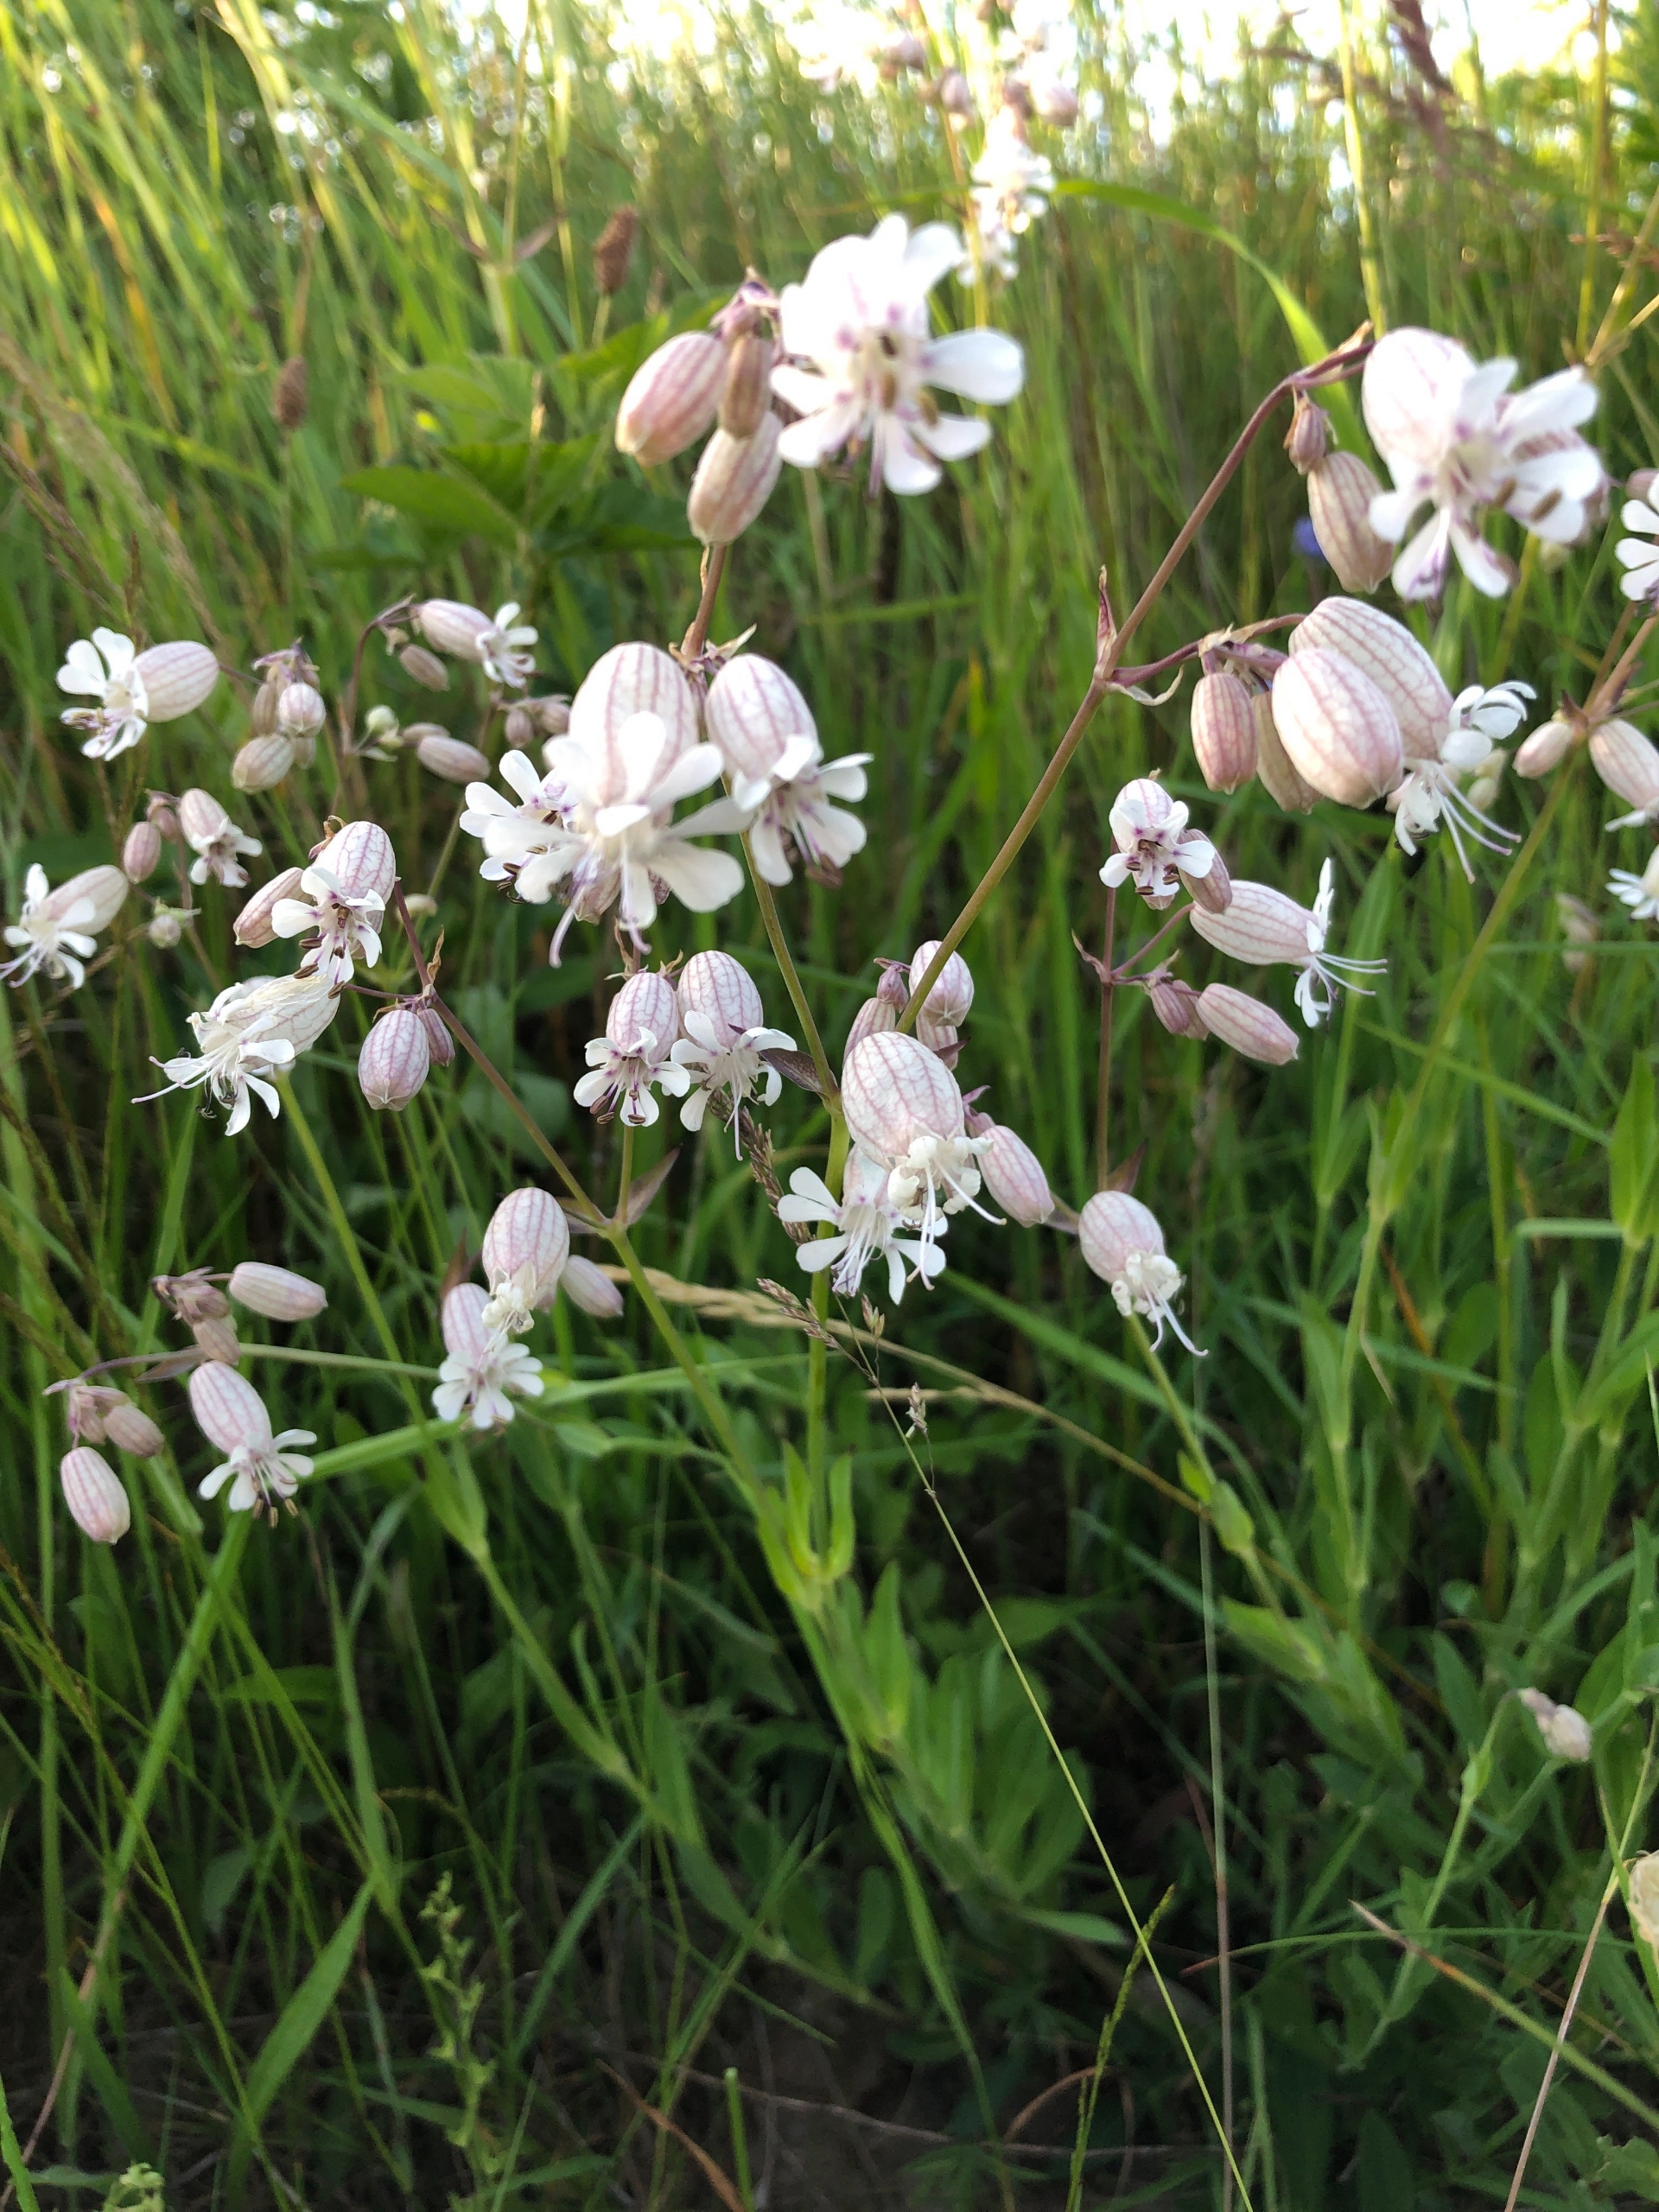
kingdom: Plantae
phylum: Tracheophyta
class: Magnoliopsida
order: Caryophyllales
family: Caryophyllaceae
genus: Silene
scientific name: Silene vulgaris
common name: Blæresmælde
